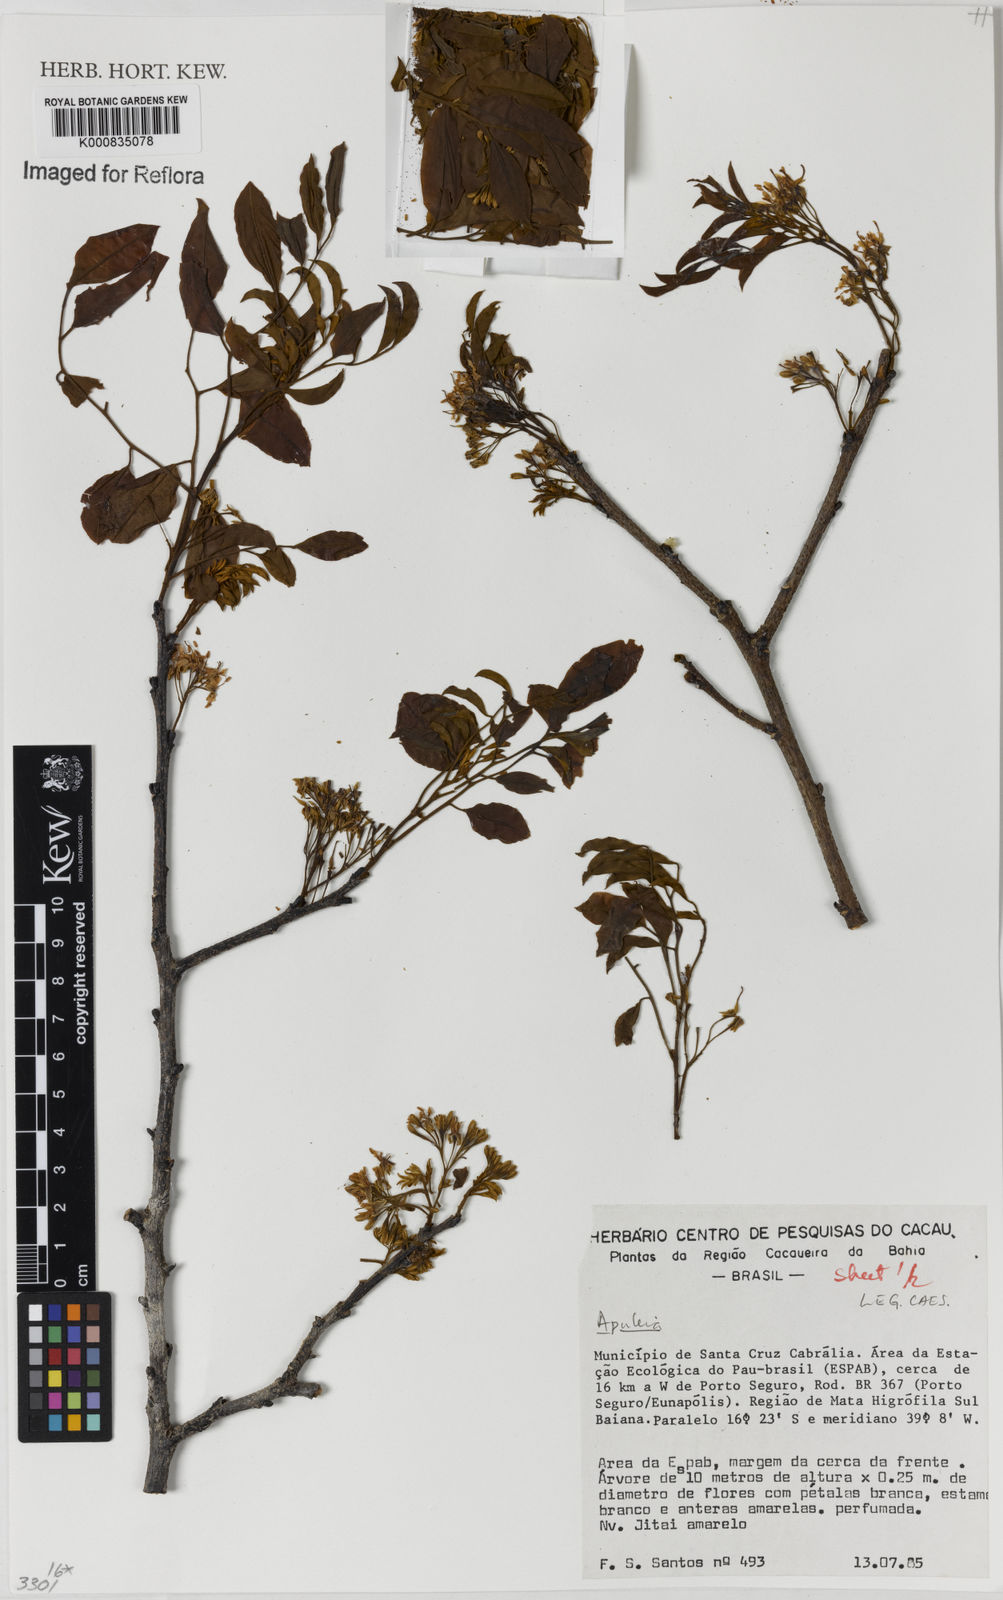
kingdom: Plantae
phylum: Tracheophyta
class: Magnoliopsida
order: Asterales
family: Asteraceae
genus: Berkheya
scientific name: Berkheya
